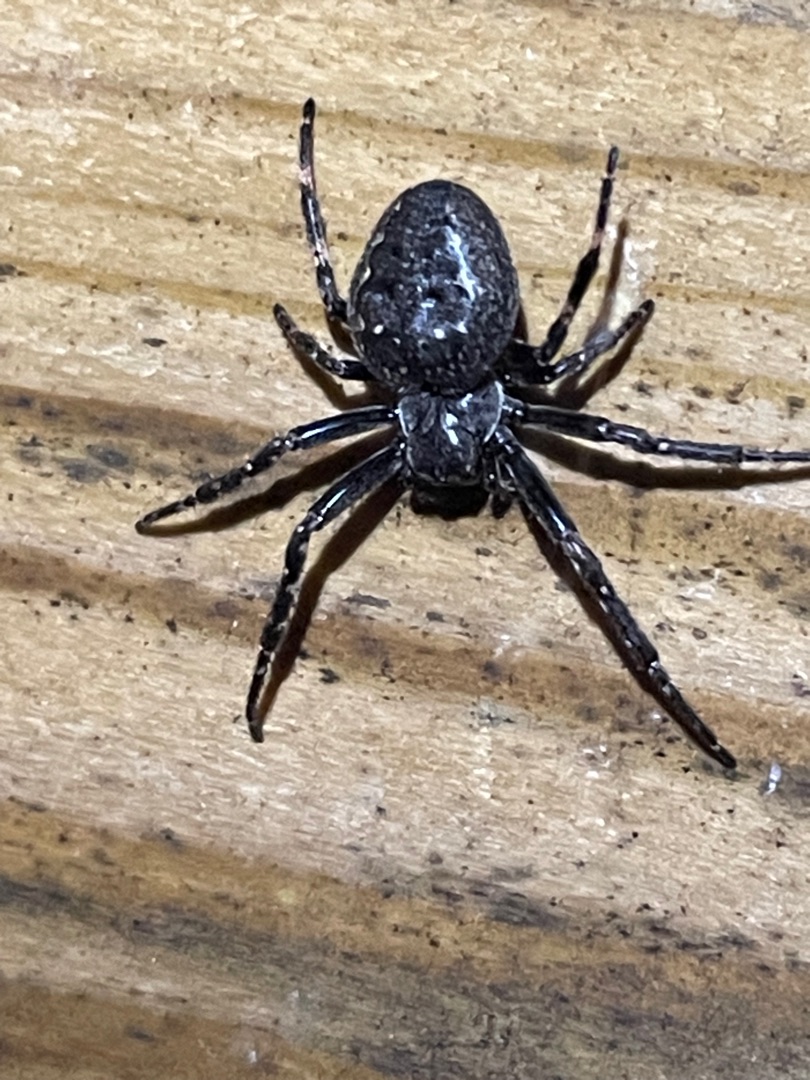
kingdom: Animalia
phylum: Arthropoda
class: Arachnida
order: Araneae
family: Araneidae
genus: Nuctenea
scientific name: Nuctenea umbratica
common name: Flad hjulspinder
